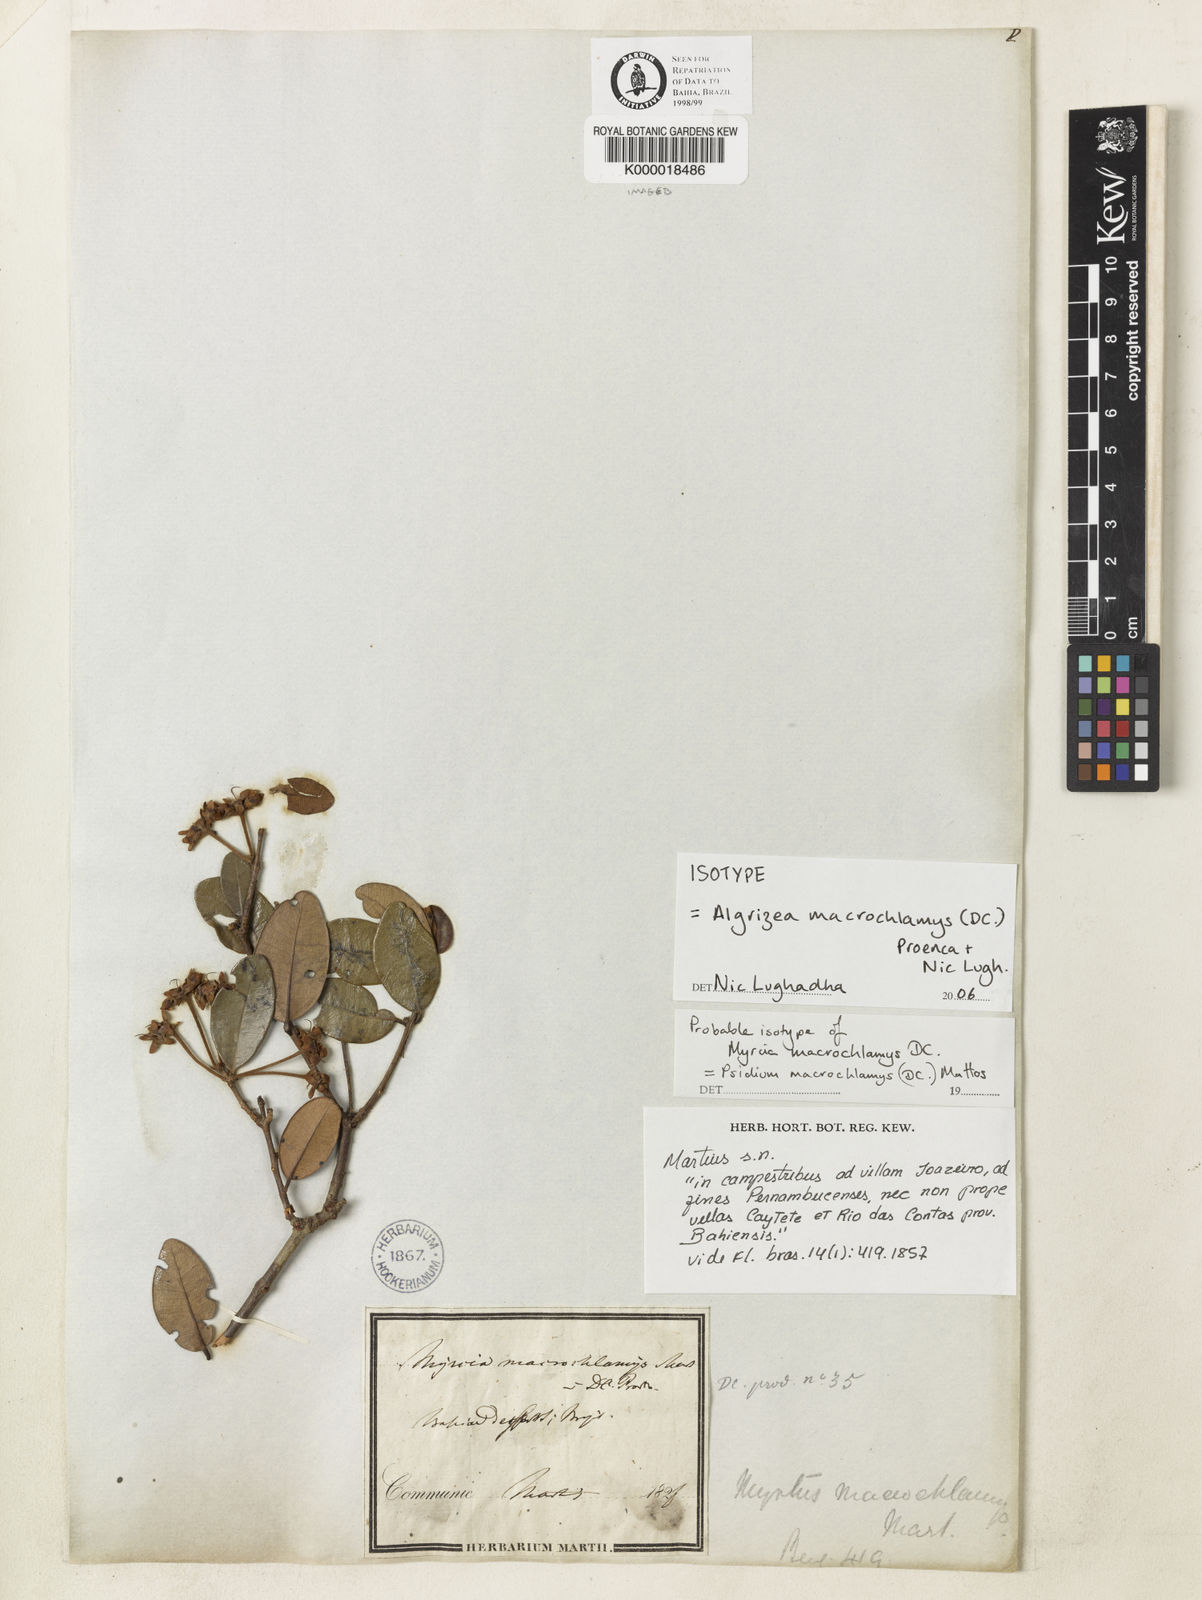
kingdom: Plantae
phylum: Tracheophyta
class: Magnoliopsida
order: Myrtales
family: Myrtaceae
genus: Algrizea
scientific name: Algrizea
